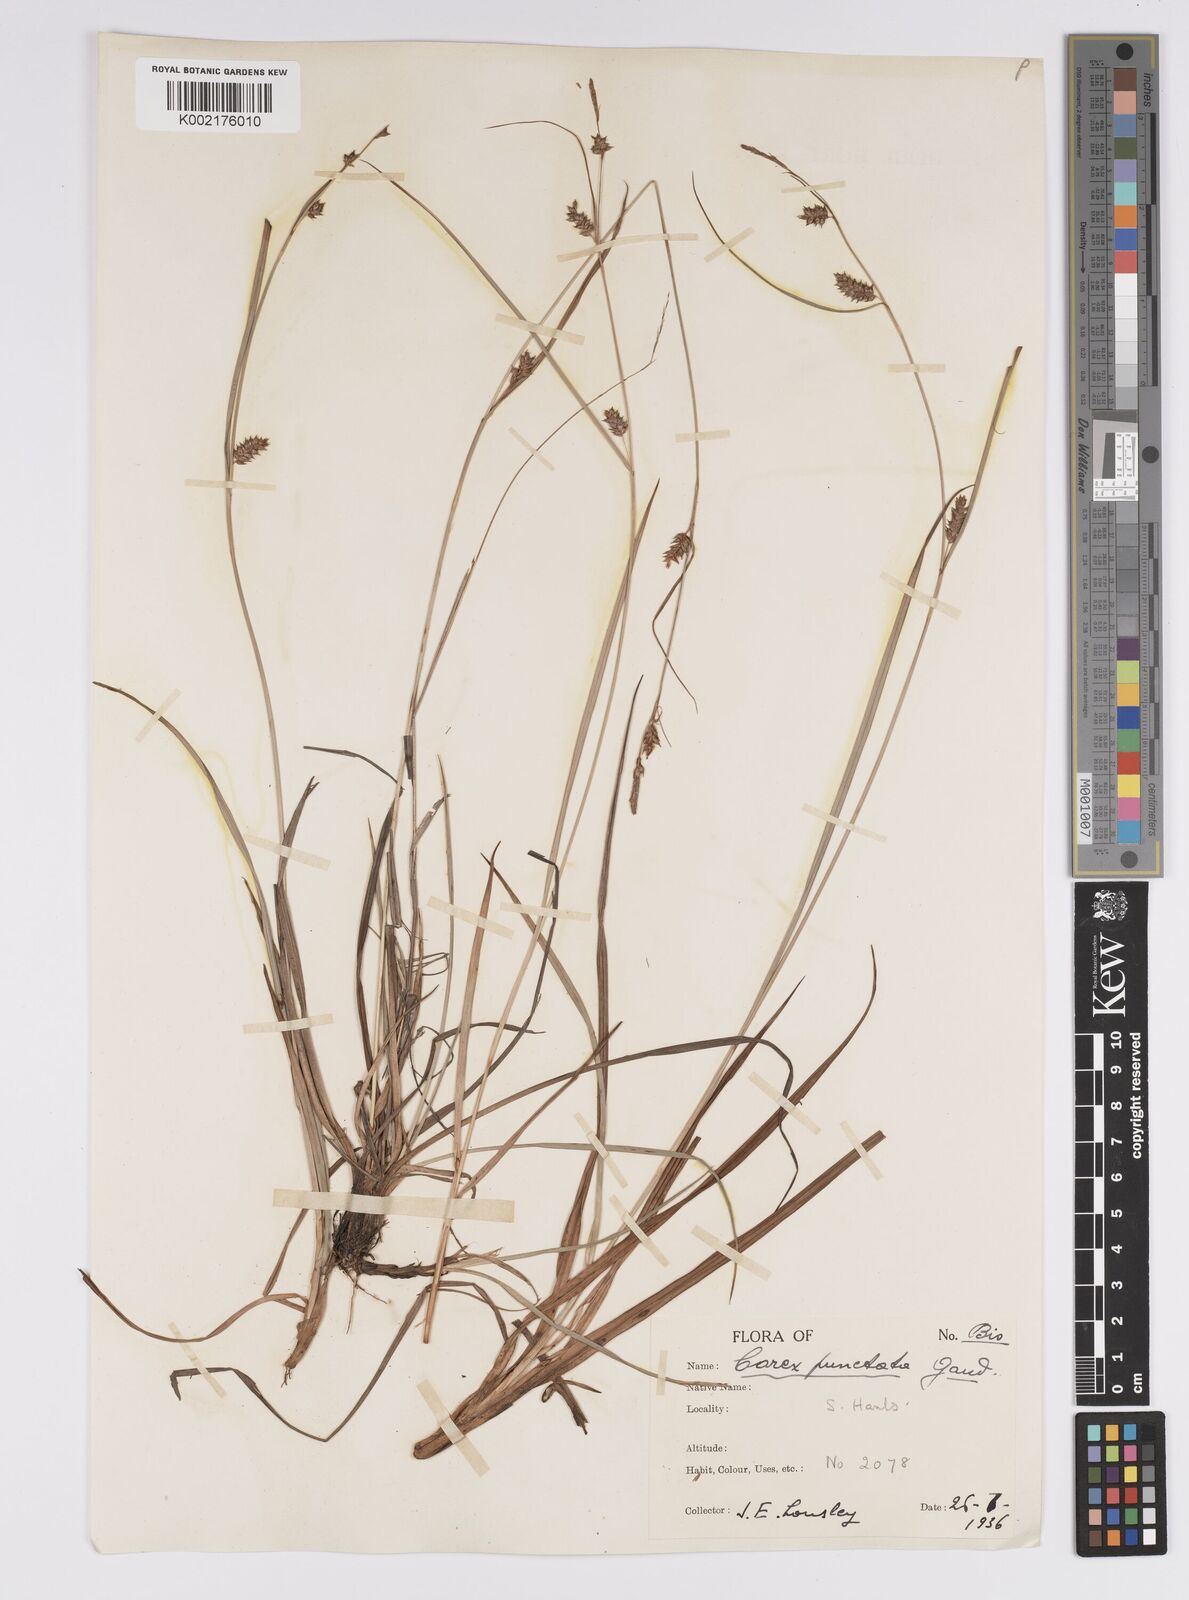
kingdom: Plantae
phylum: Tracheophyta
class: Liliopsida
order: Poales
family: Cyperaceae
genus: Carex
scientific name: Carex punctata
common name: Dotted sedge
